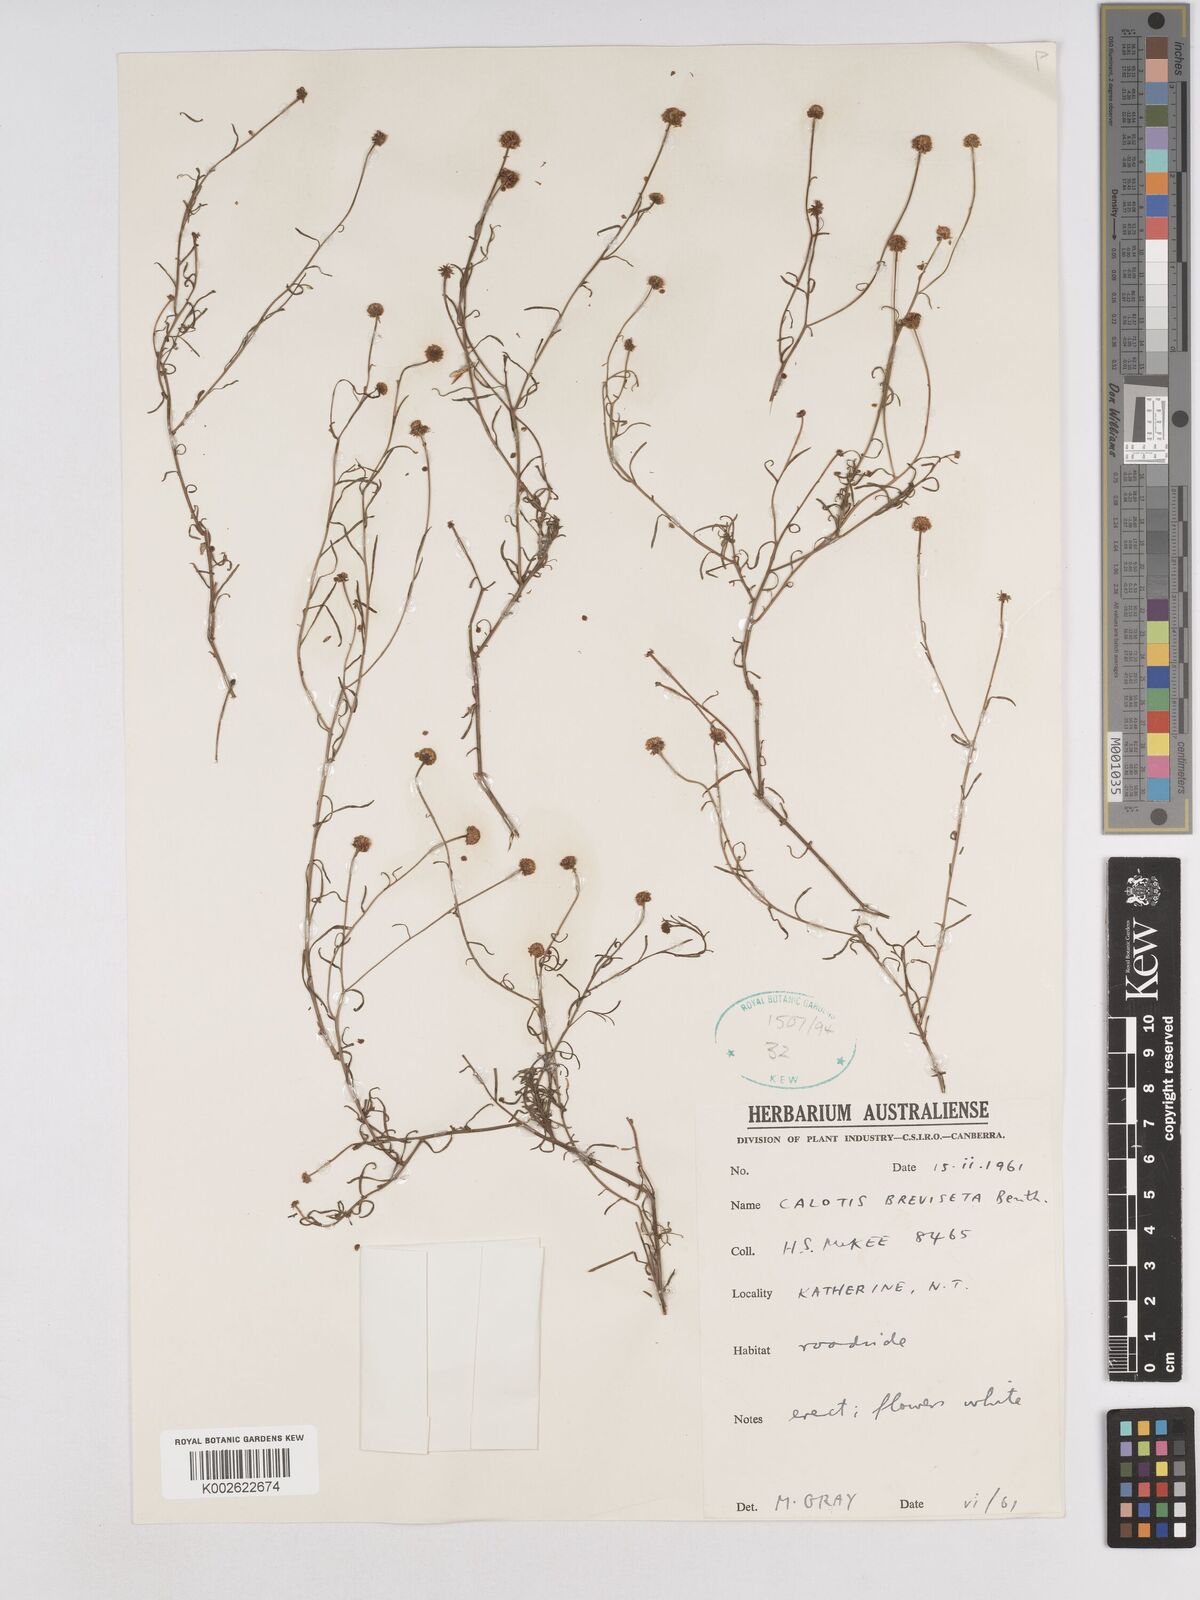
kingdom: Plantae
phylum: Tracheophyta
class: Magnoliopsida
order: Asterales
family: Asteraceae
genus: Calotis
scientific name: Calotis breviseta
